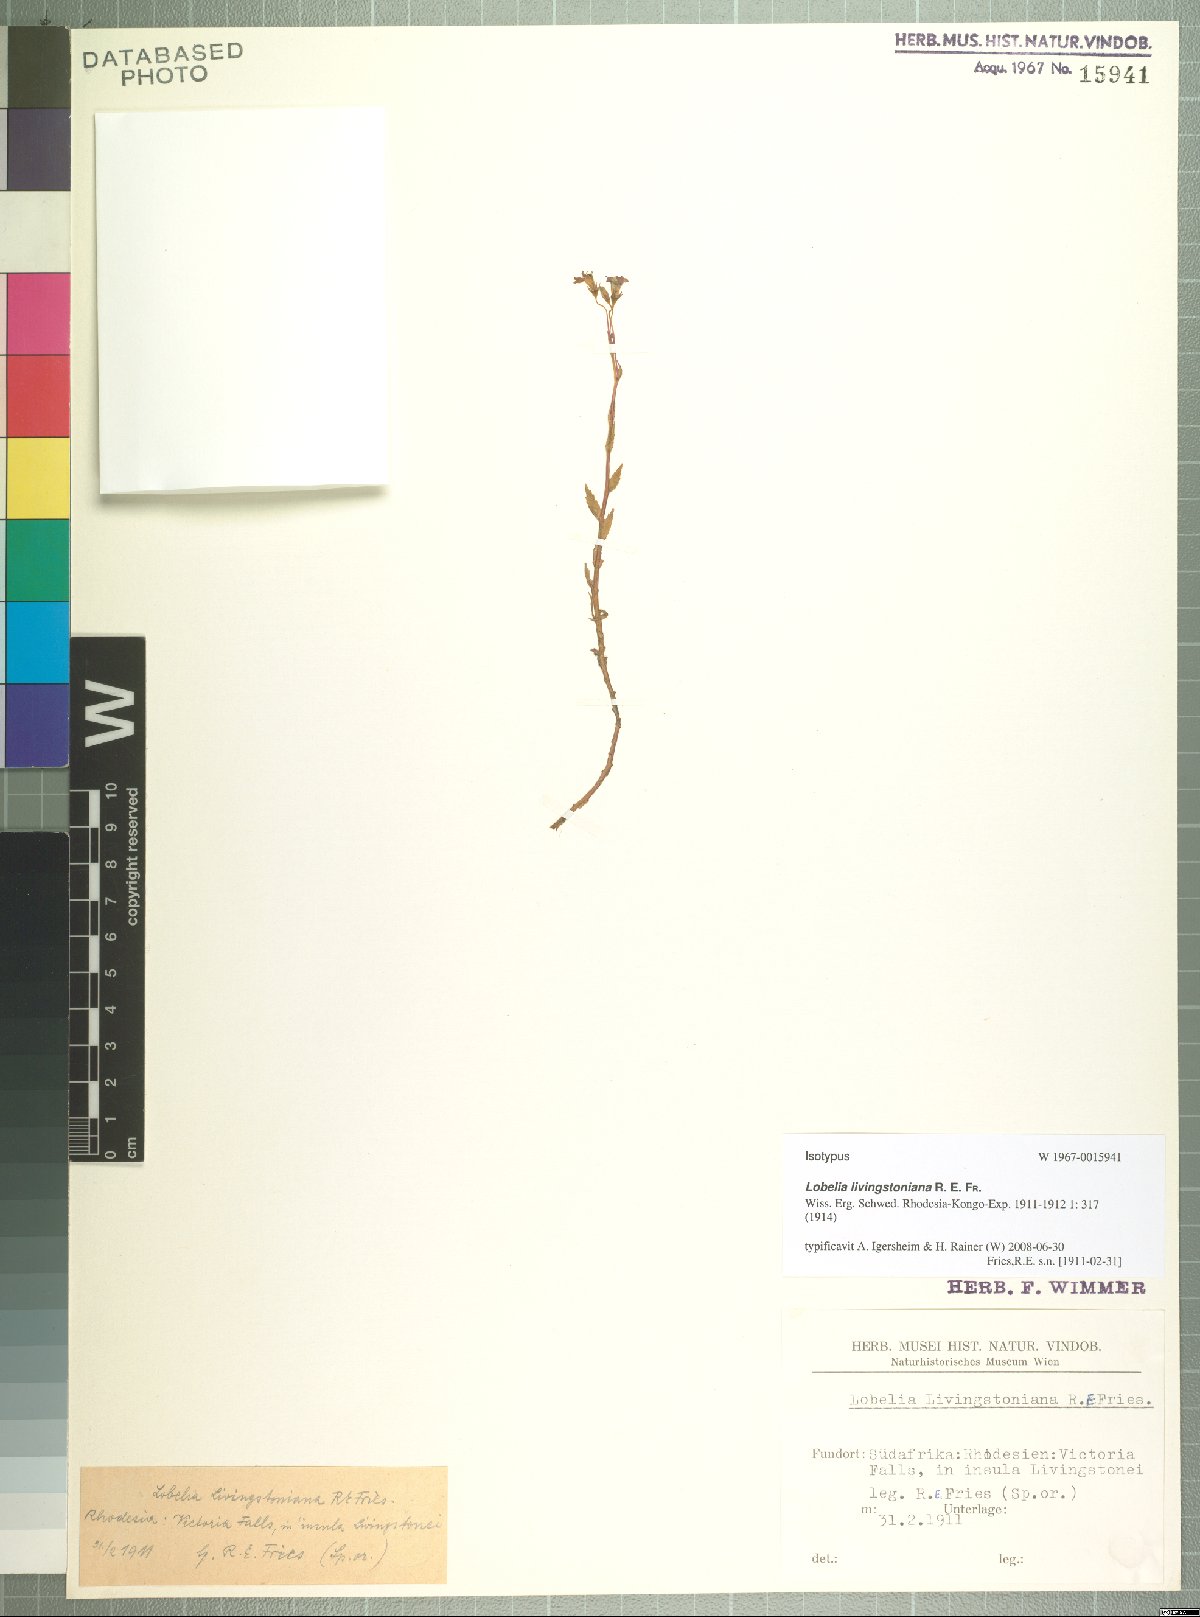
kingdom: Plantae
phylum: Tracheophyta
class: Magnoliopsida
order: Asterales
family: Campanulaceae
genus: Lobelia
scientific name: Lobelia livingstoniana
